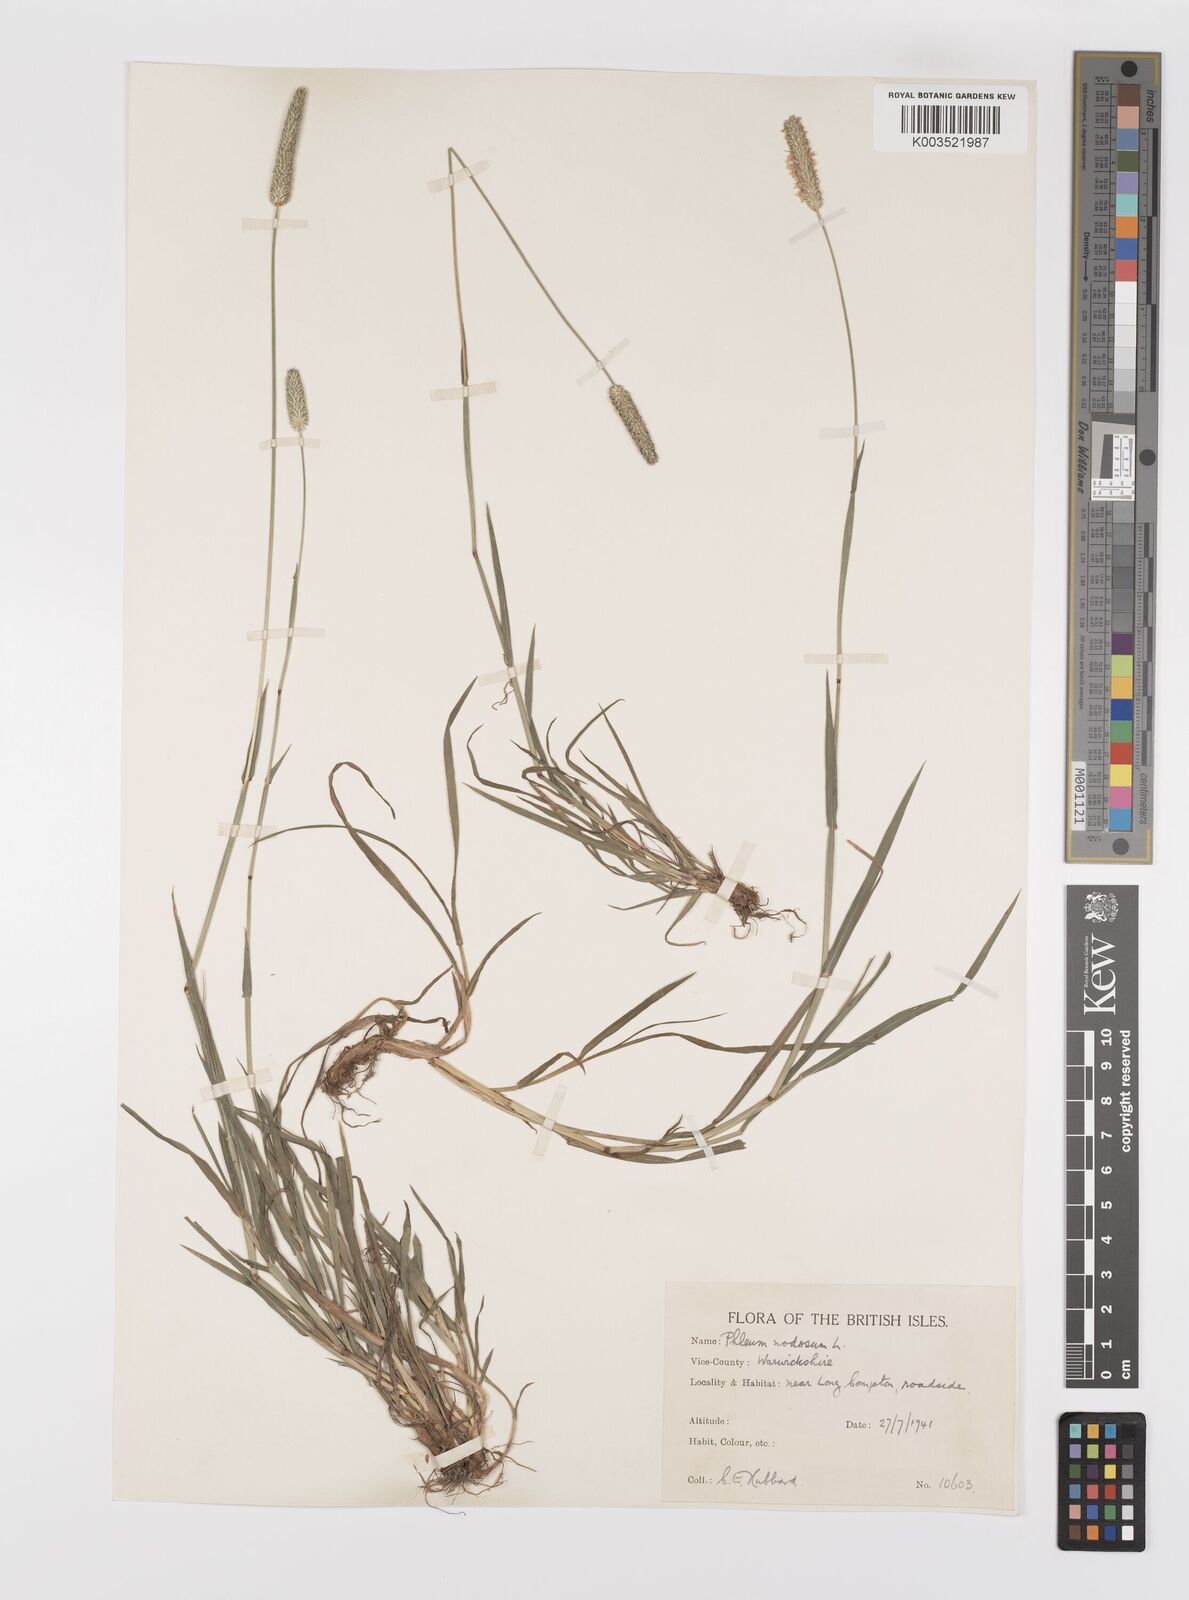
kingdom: Plantae
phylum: Tracheophyta
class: Liliopsida
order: Poales
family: Poaceae
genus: Phleum
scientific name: Phleum bertolonii
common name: Smaller cat's-tail
